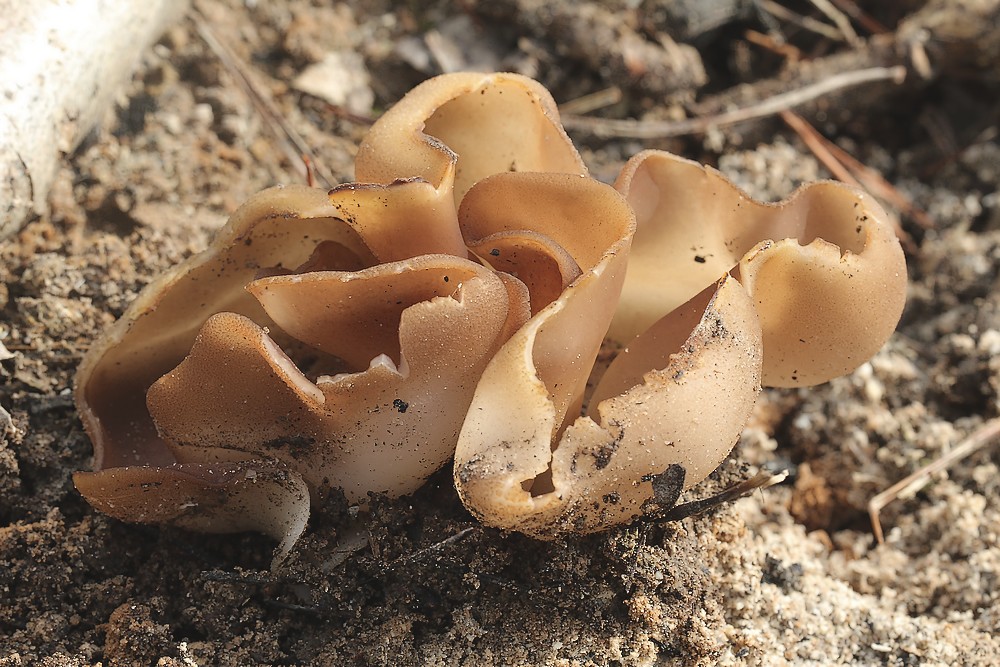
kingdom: Fungi
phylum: Ascomycota
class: Pezizomycetes
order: Pezizales
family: Pezizaceae
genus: Daleomyces
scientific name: Daleomyces petersii
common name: brandplet-bægersvamp
